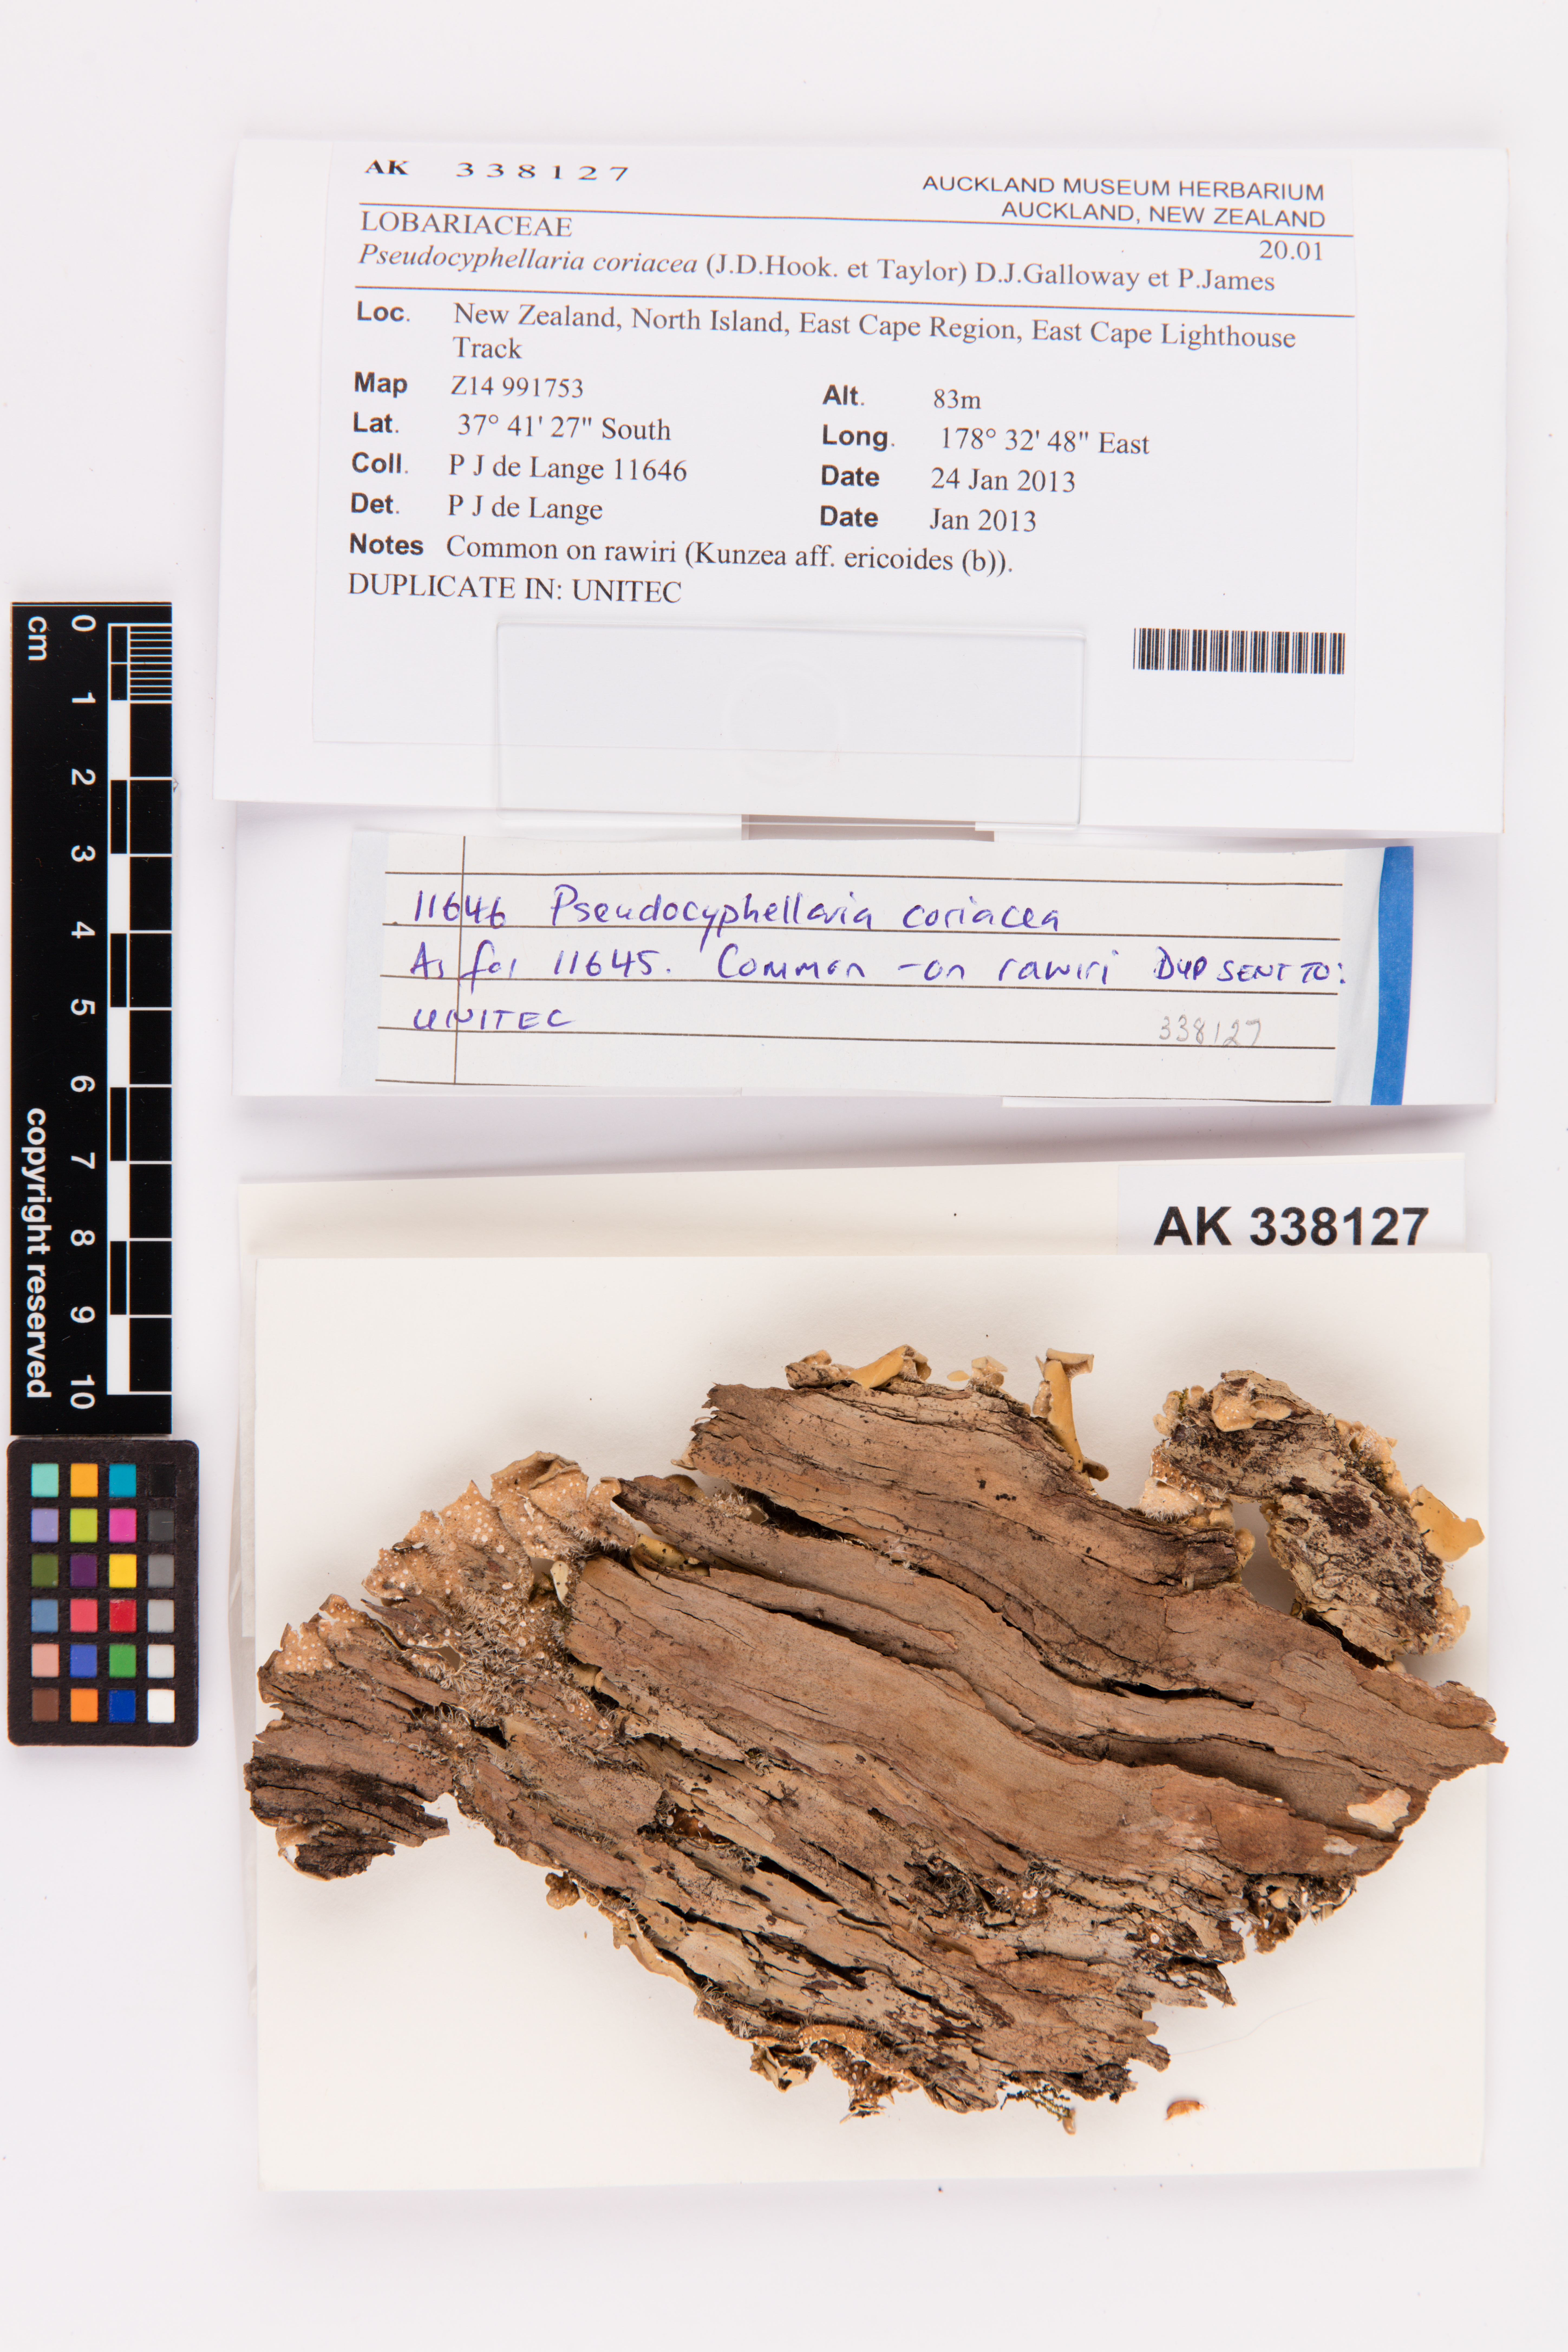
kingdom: Fungi
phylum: Ascomycota
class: Lecanoromycetes
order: Peltigerales
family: Lobariaceae
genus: Pseudocyphellaria
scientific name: Pseudocyphellaria coriacea
